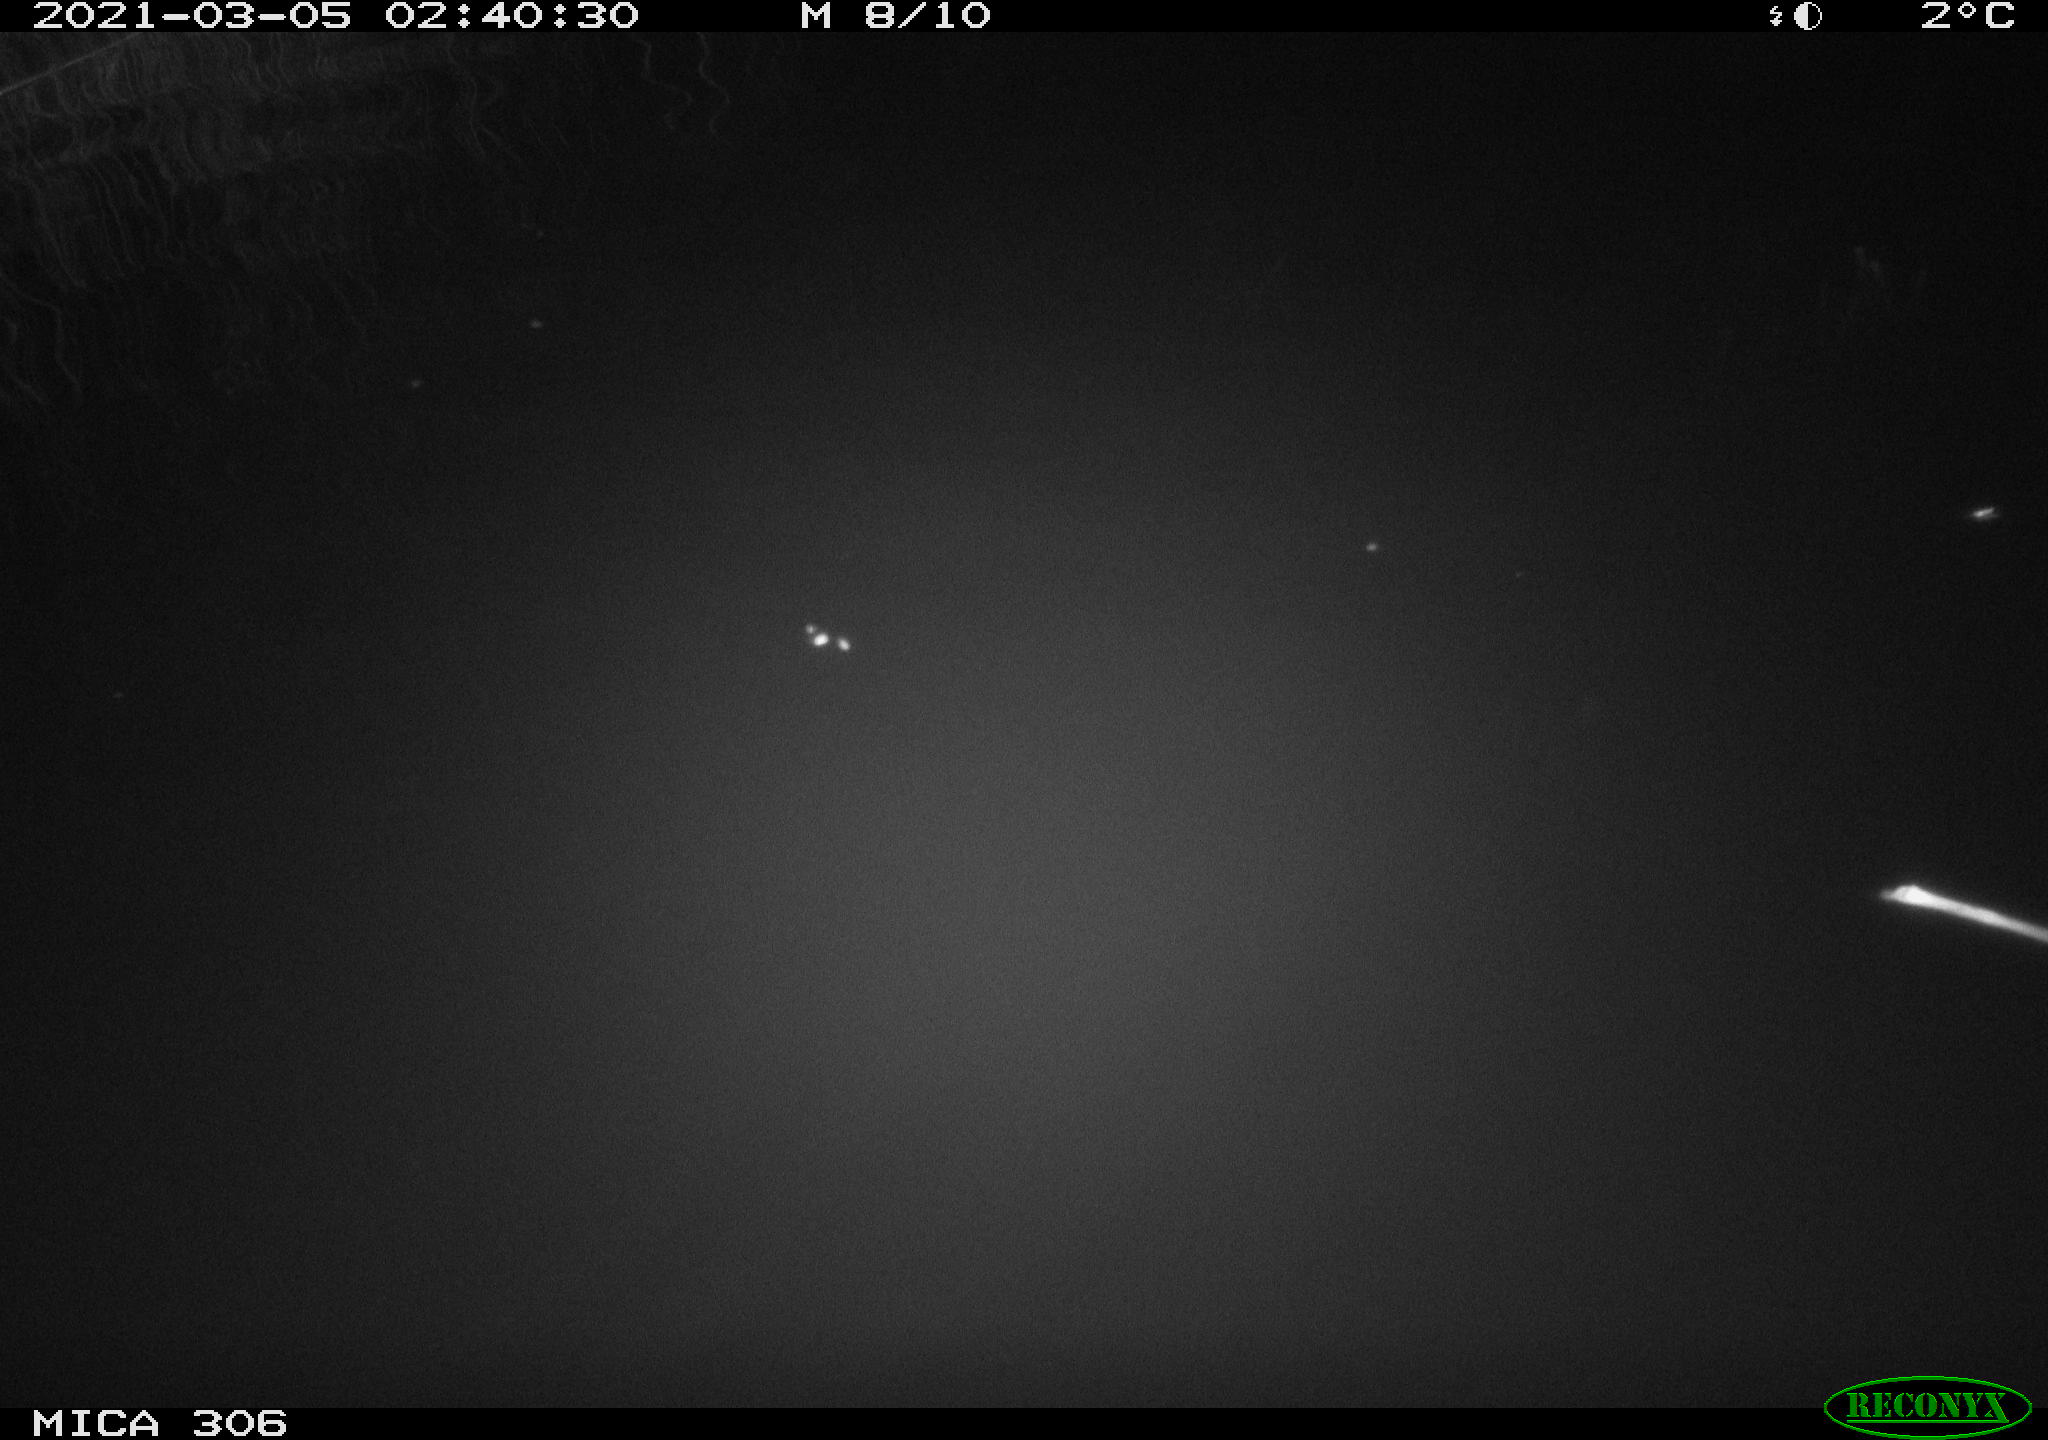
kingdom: Animalia
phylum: Chordata
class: Aves
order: Gruiformes
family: Rallidae
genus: Gallinula
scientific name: Gallinula chloropus
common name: Common moorhen
